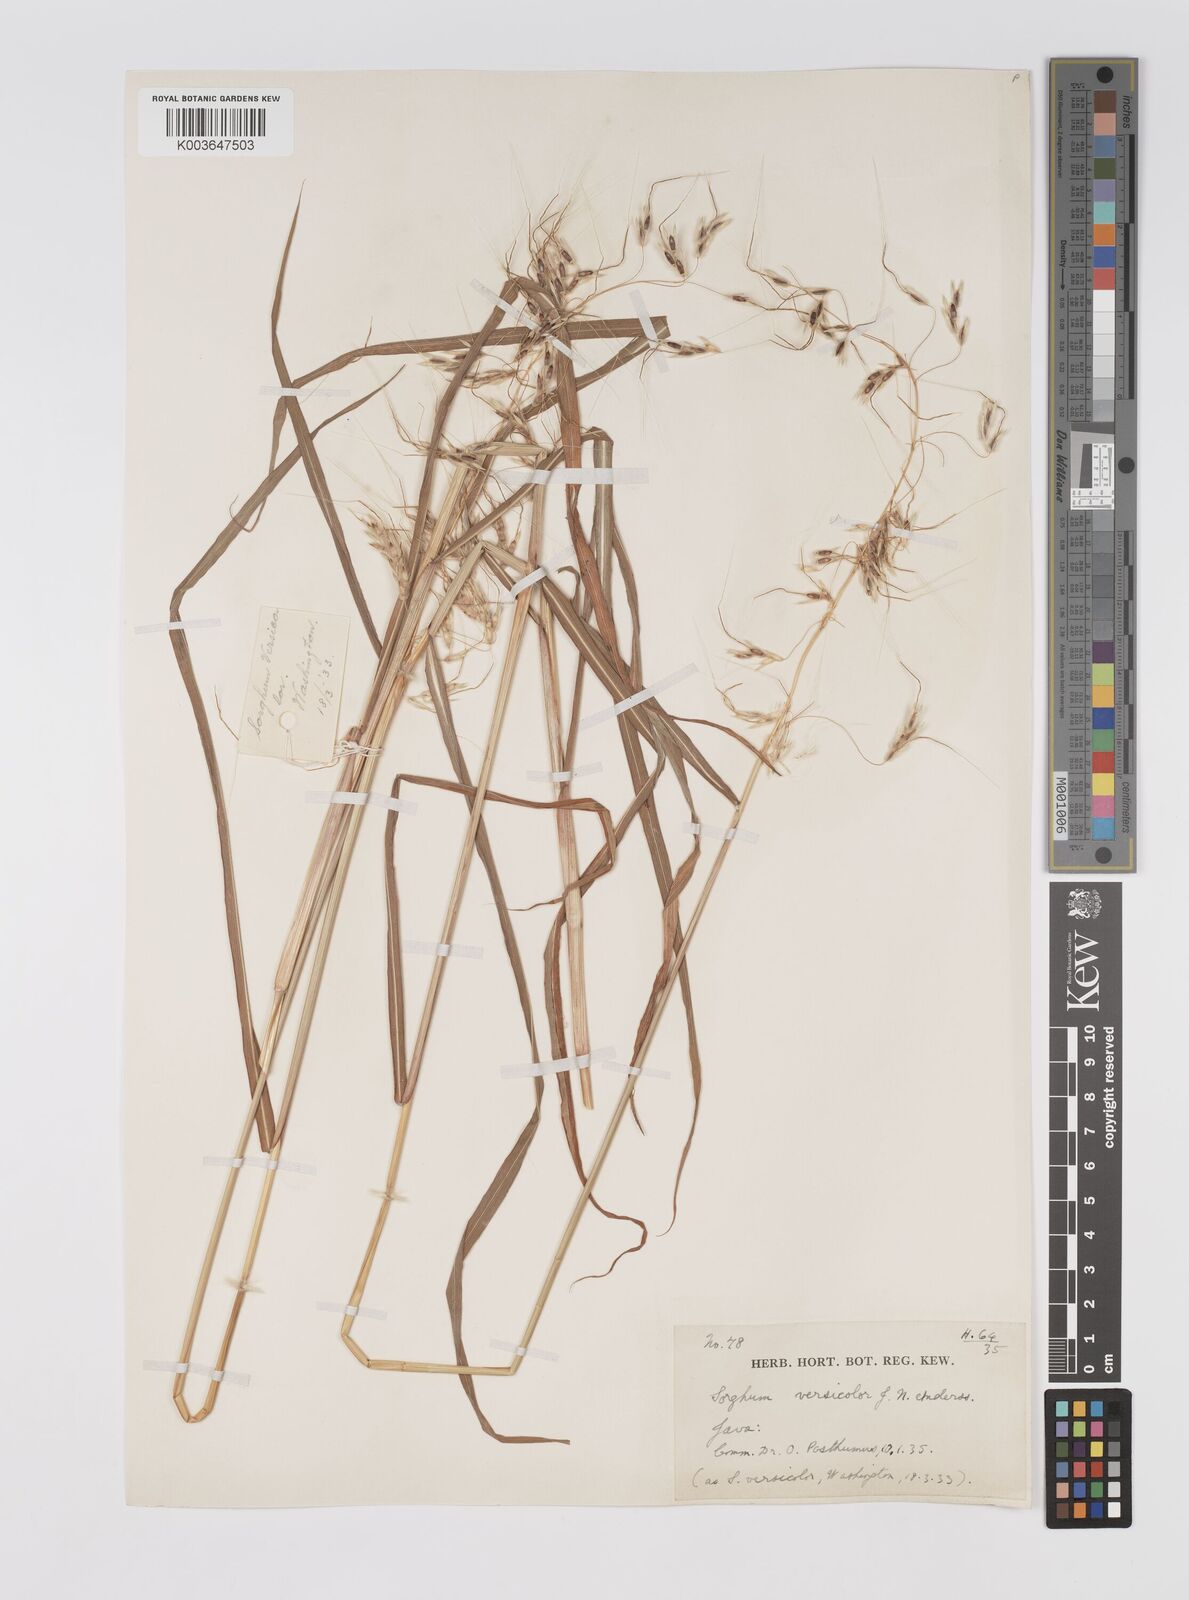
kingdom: Plantae
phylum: Tracheophyta
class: Liliopsida
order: Poales
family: Poaceae
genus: Sarga
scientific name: Sarga versicolor
